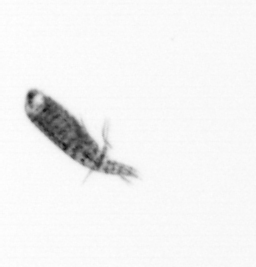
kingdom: Animalia
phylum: Arthropoda
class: Copepoda
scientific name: Copepoda
